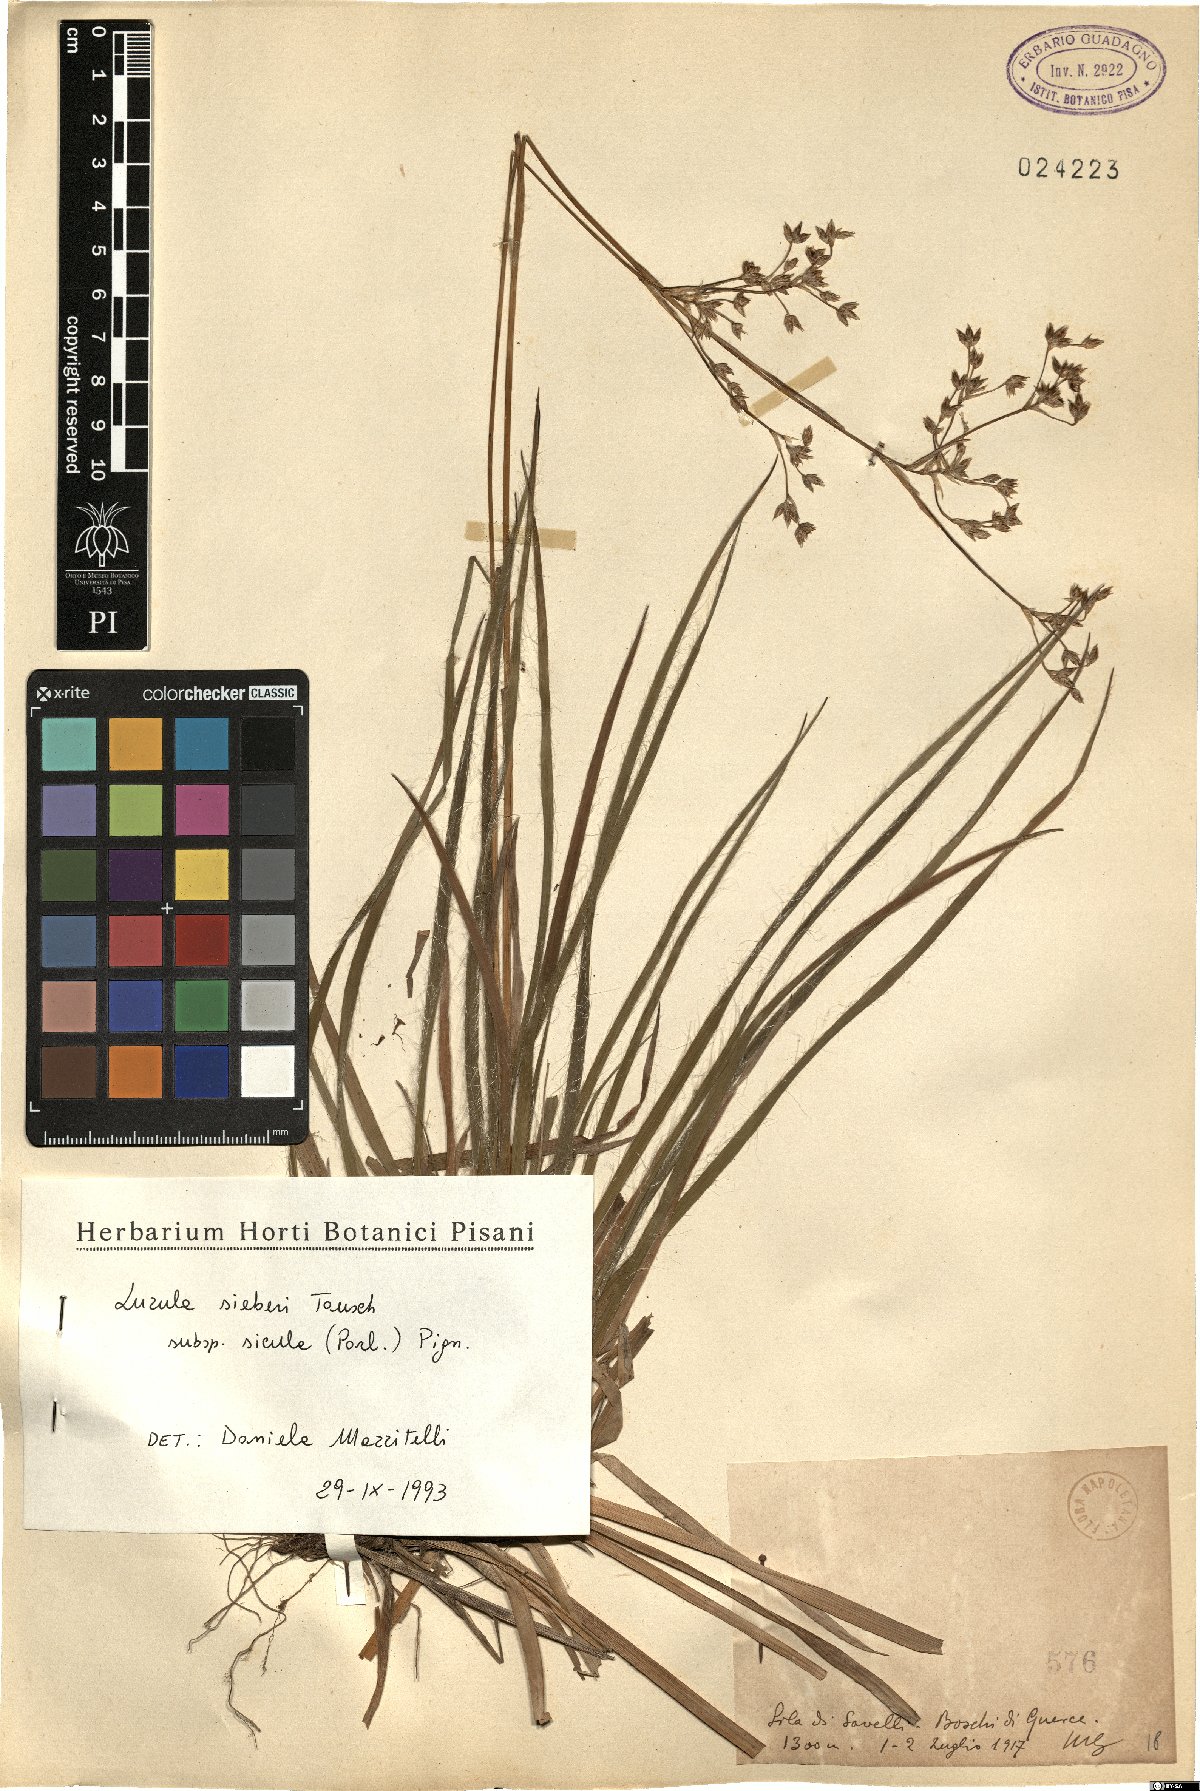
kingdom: Plantae
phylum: Tracheophyta
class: Liliopsida
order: Poales
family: Juncaceae
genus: Luzula
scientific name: Luzula sylvatica
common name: Great wood-rush
